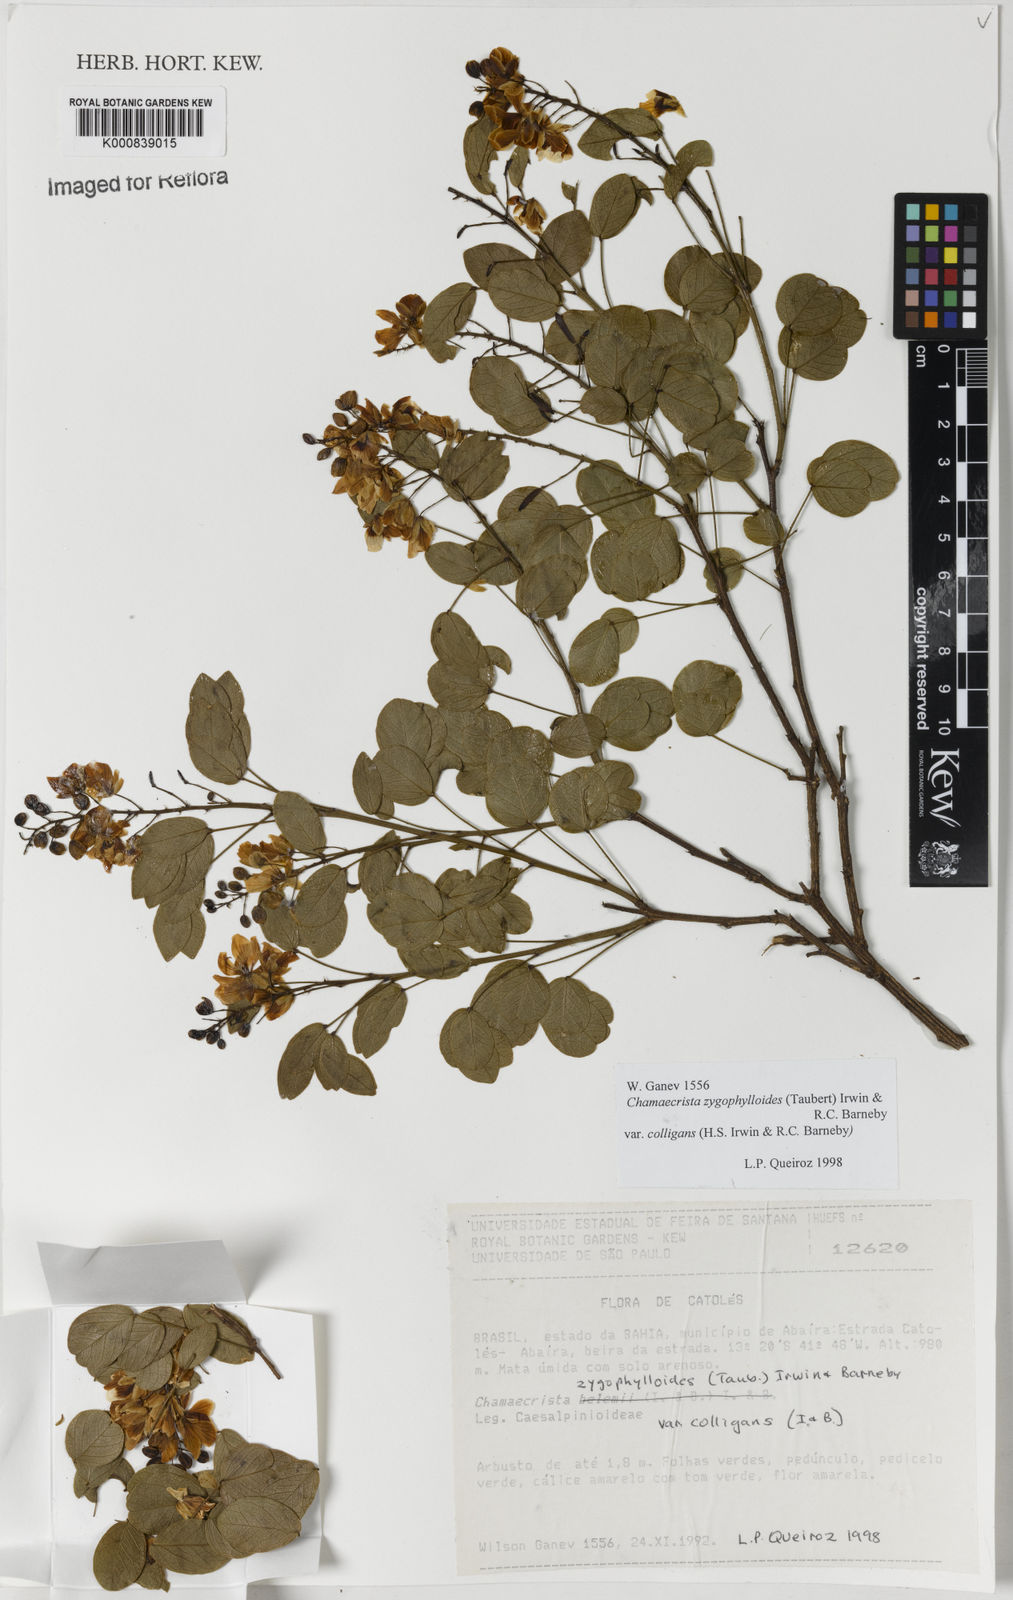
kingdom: Plantae
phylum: Tracheophyta
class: Magnoliopsida
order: Fabales
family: Fabaceae
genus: Chamaecrista
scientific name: Chamaecrista zygophylloides
